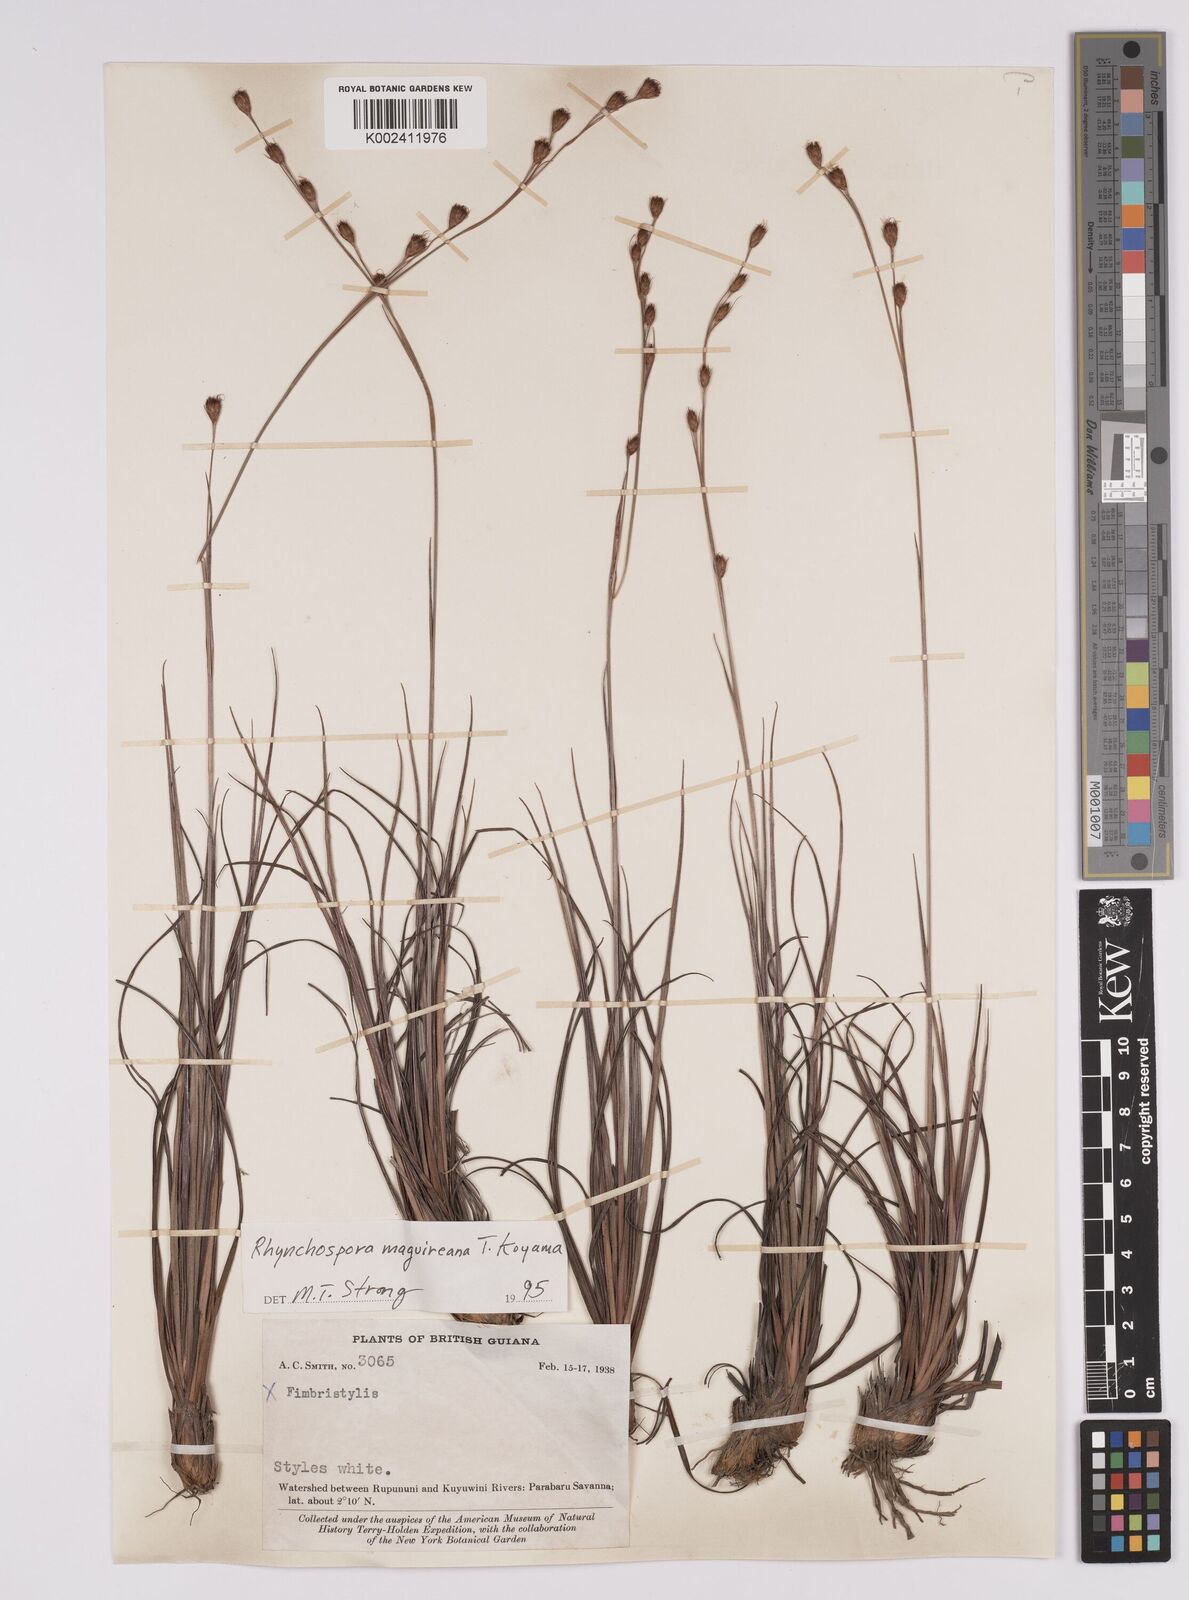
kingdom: Plantae
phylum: Tracheophyta
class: Liliopsida
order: Poales
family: Cyperaceae
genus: Rhynchospora
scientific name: Rhynchospora maguireana
